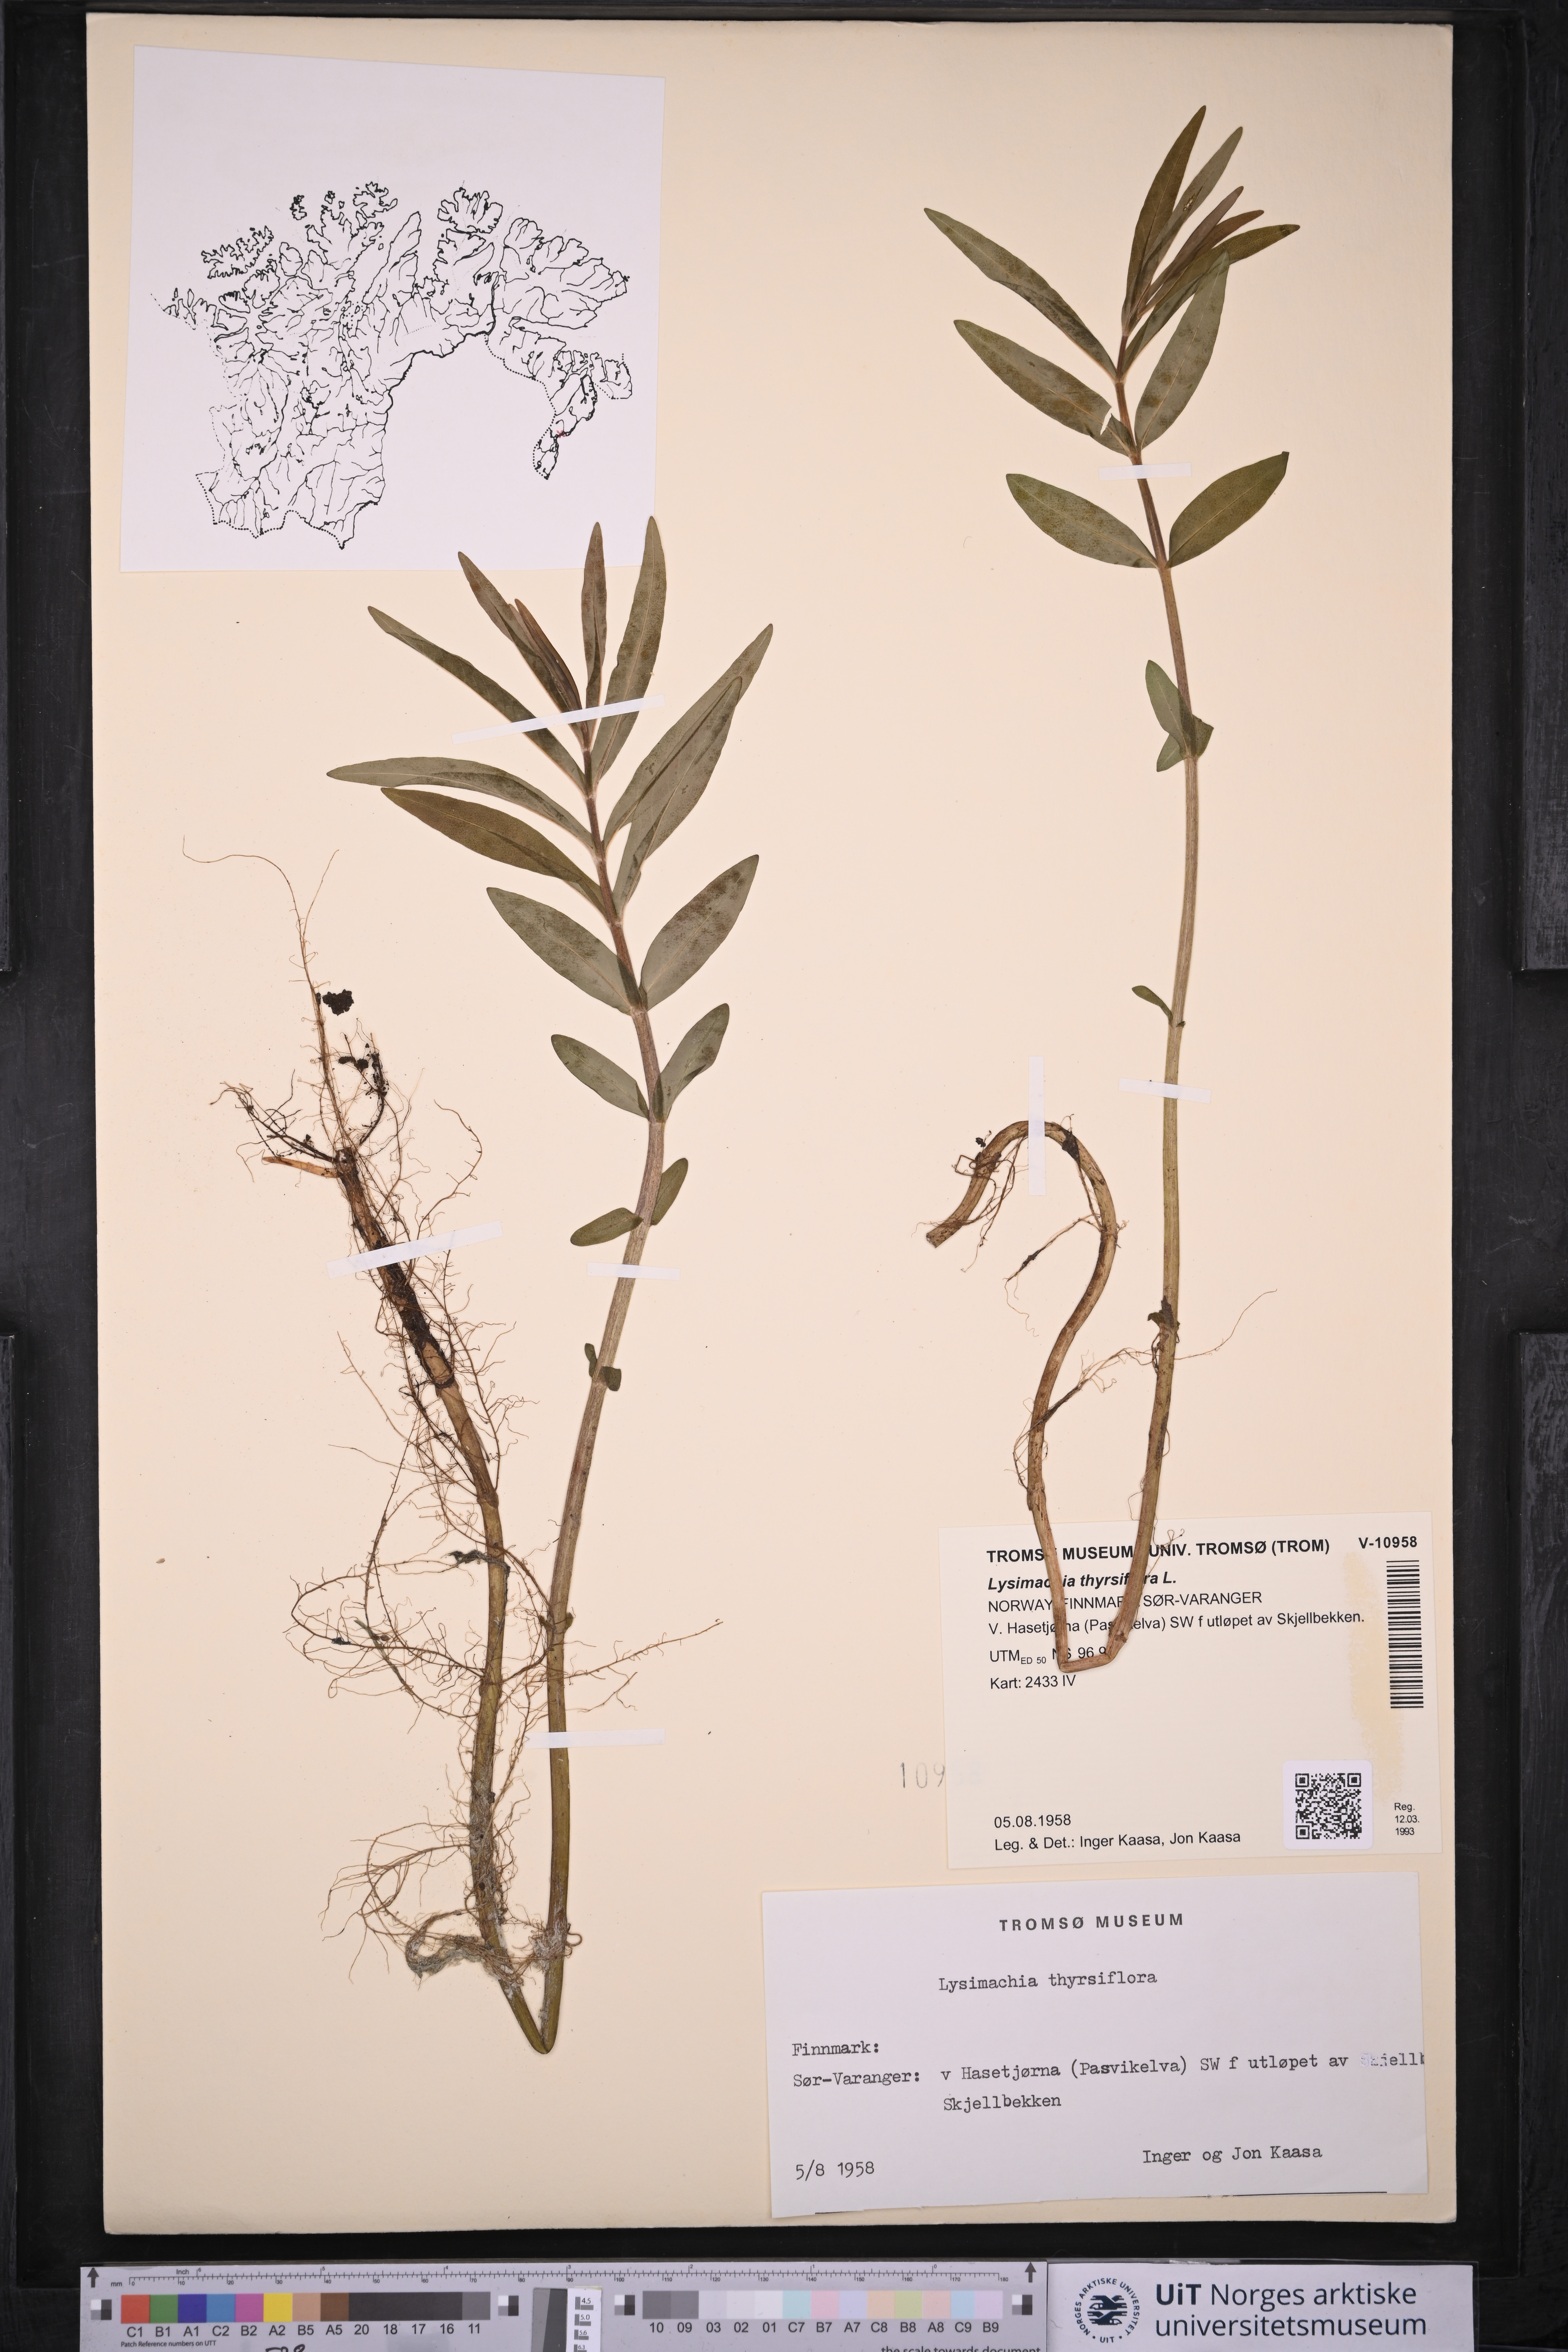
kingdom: Plantae
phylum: Tracheophyta
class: Magnoliopsida
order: Ericales
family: Primulaceae
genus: Lysimachia
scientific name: Lysimachia thyrsiflora
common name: Tufted loosestrife
